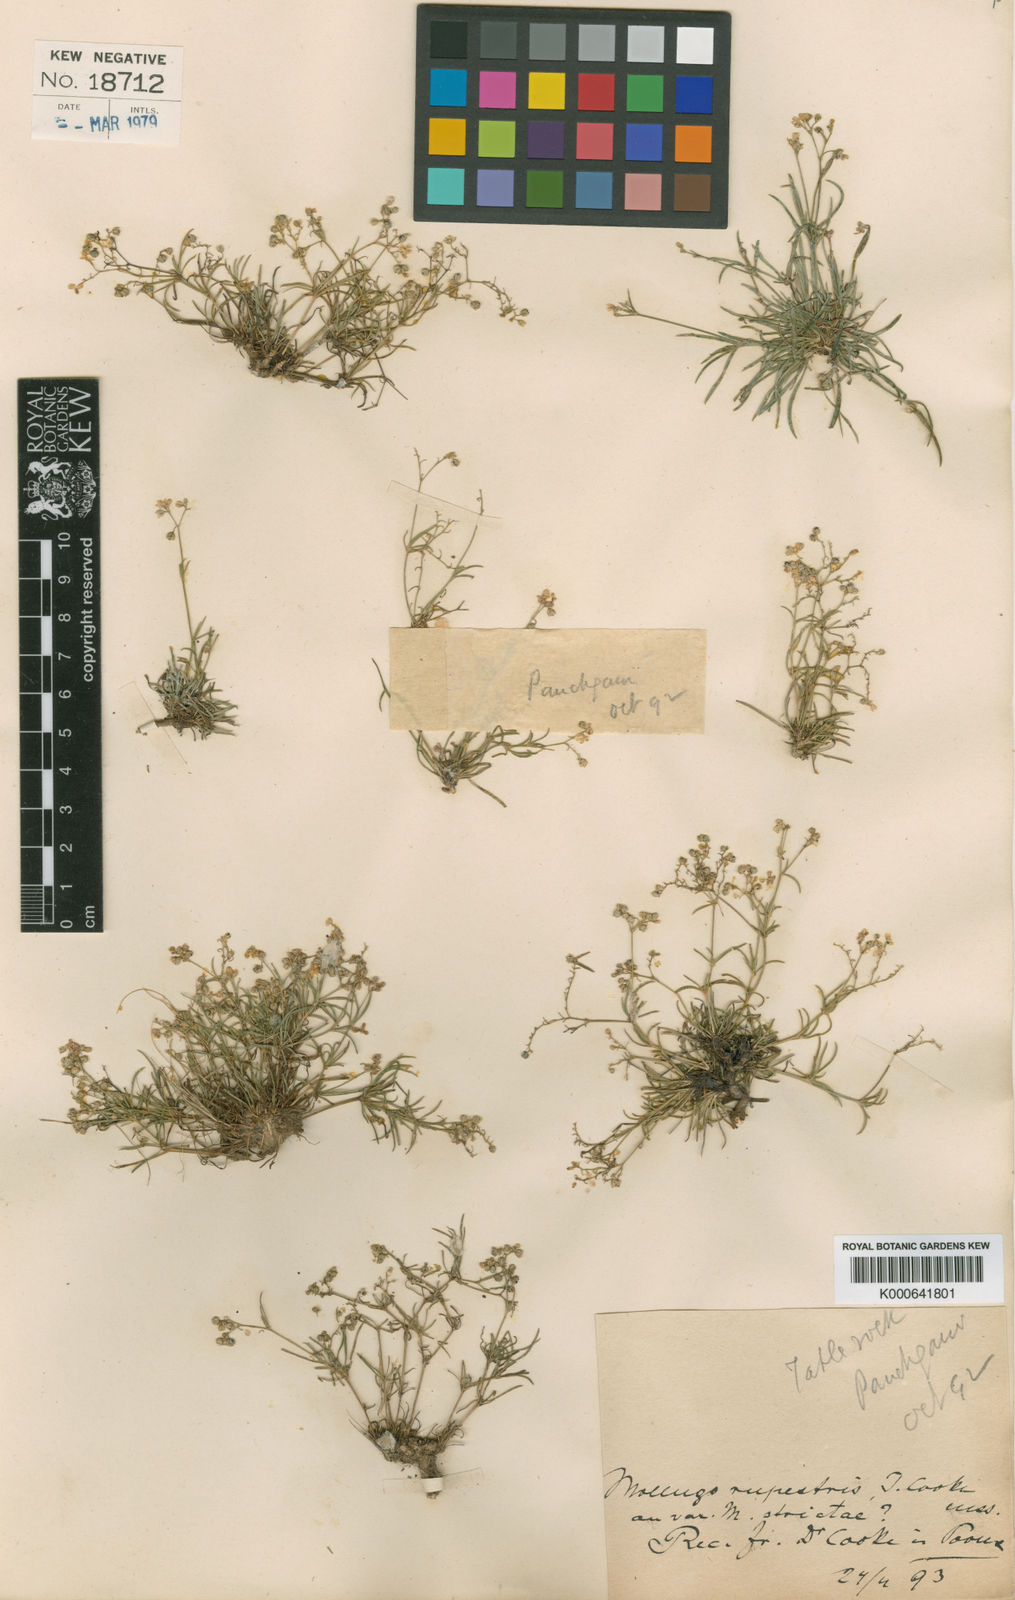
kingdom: Plantae
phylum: Tracheophyta
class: Magnoliopsida
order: Caryophyllales
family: Molluginaceae
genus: Mollugo
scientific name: Mollugo
